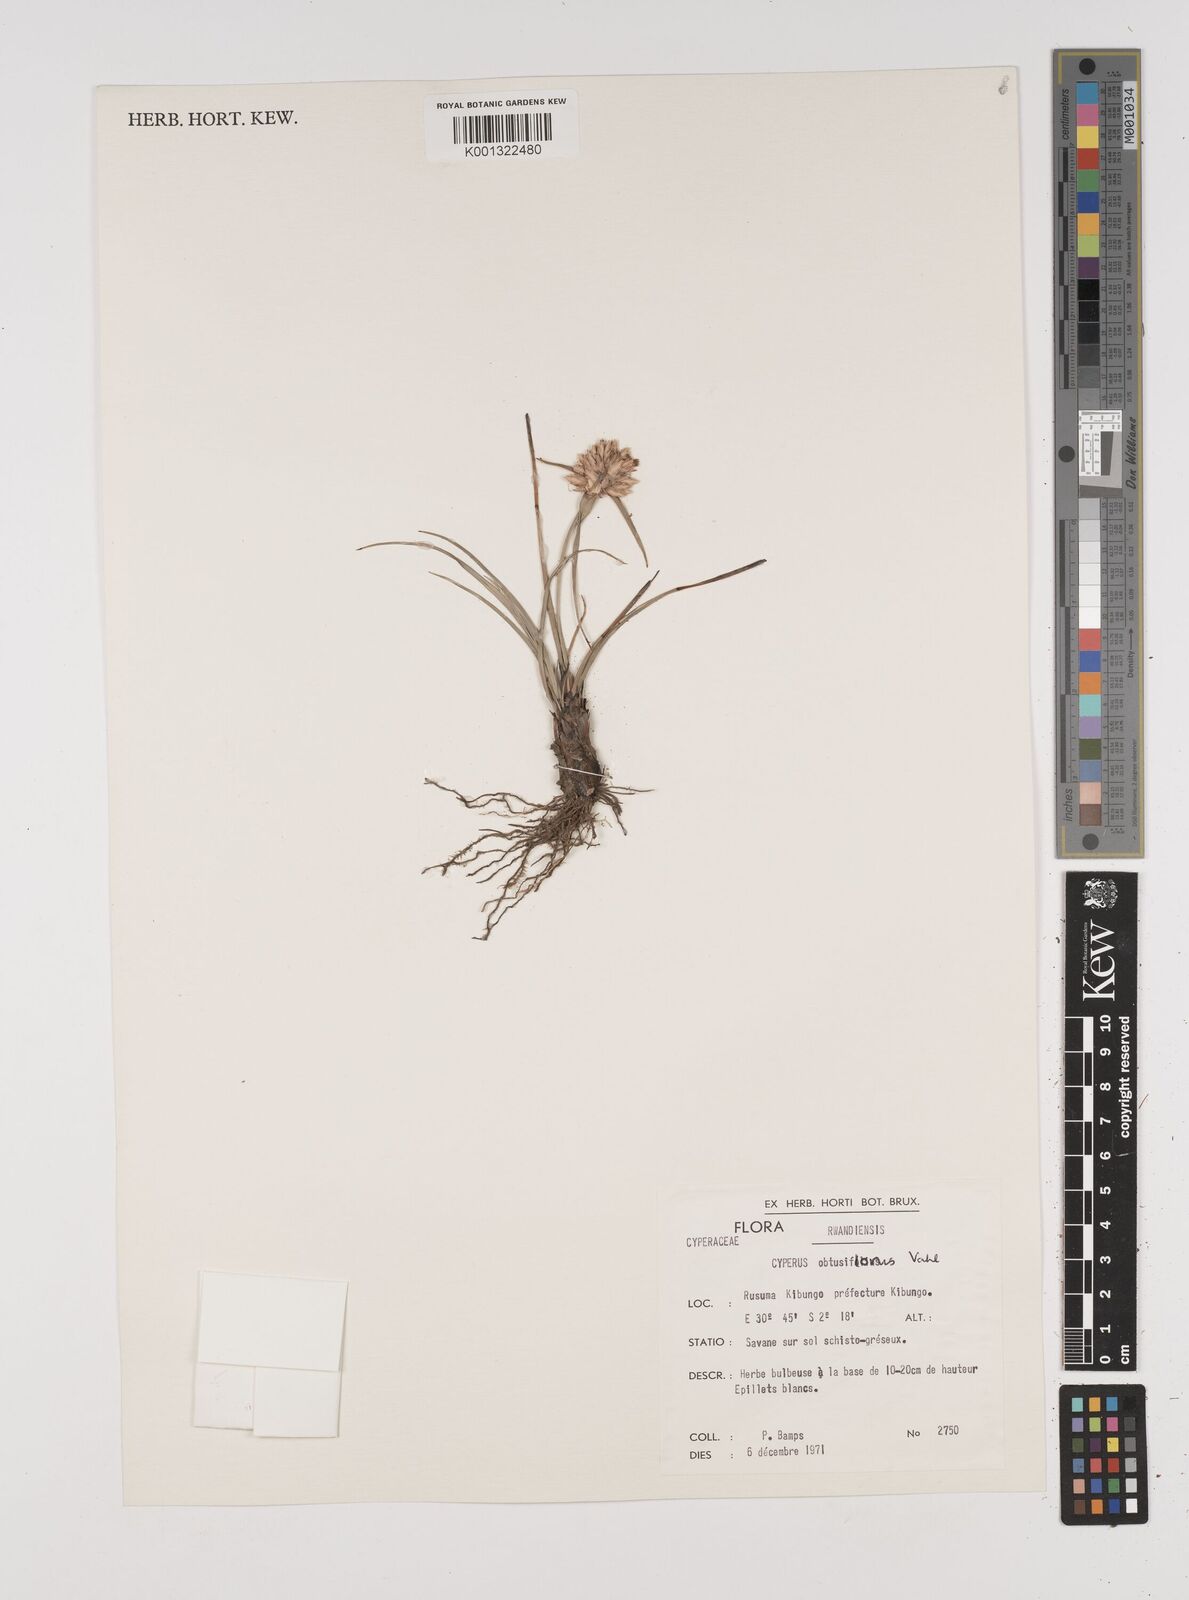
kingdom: Plantae
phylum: Tracheophyta
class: Liliopsida
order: Poales
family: Cyperaceae
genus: Cyperus
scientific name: Cyperus niveus
